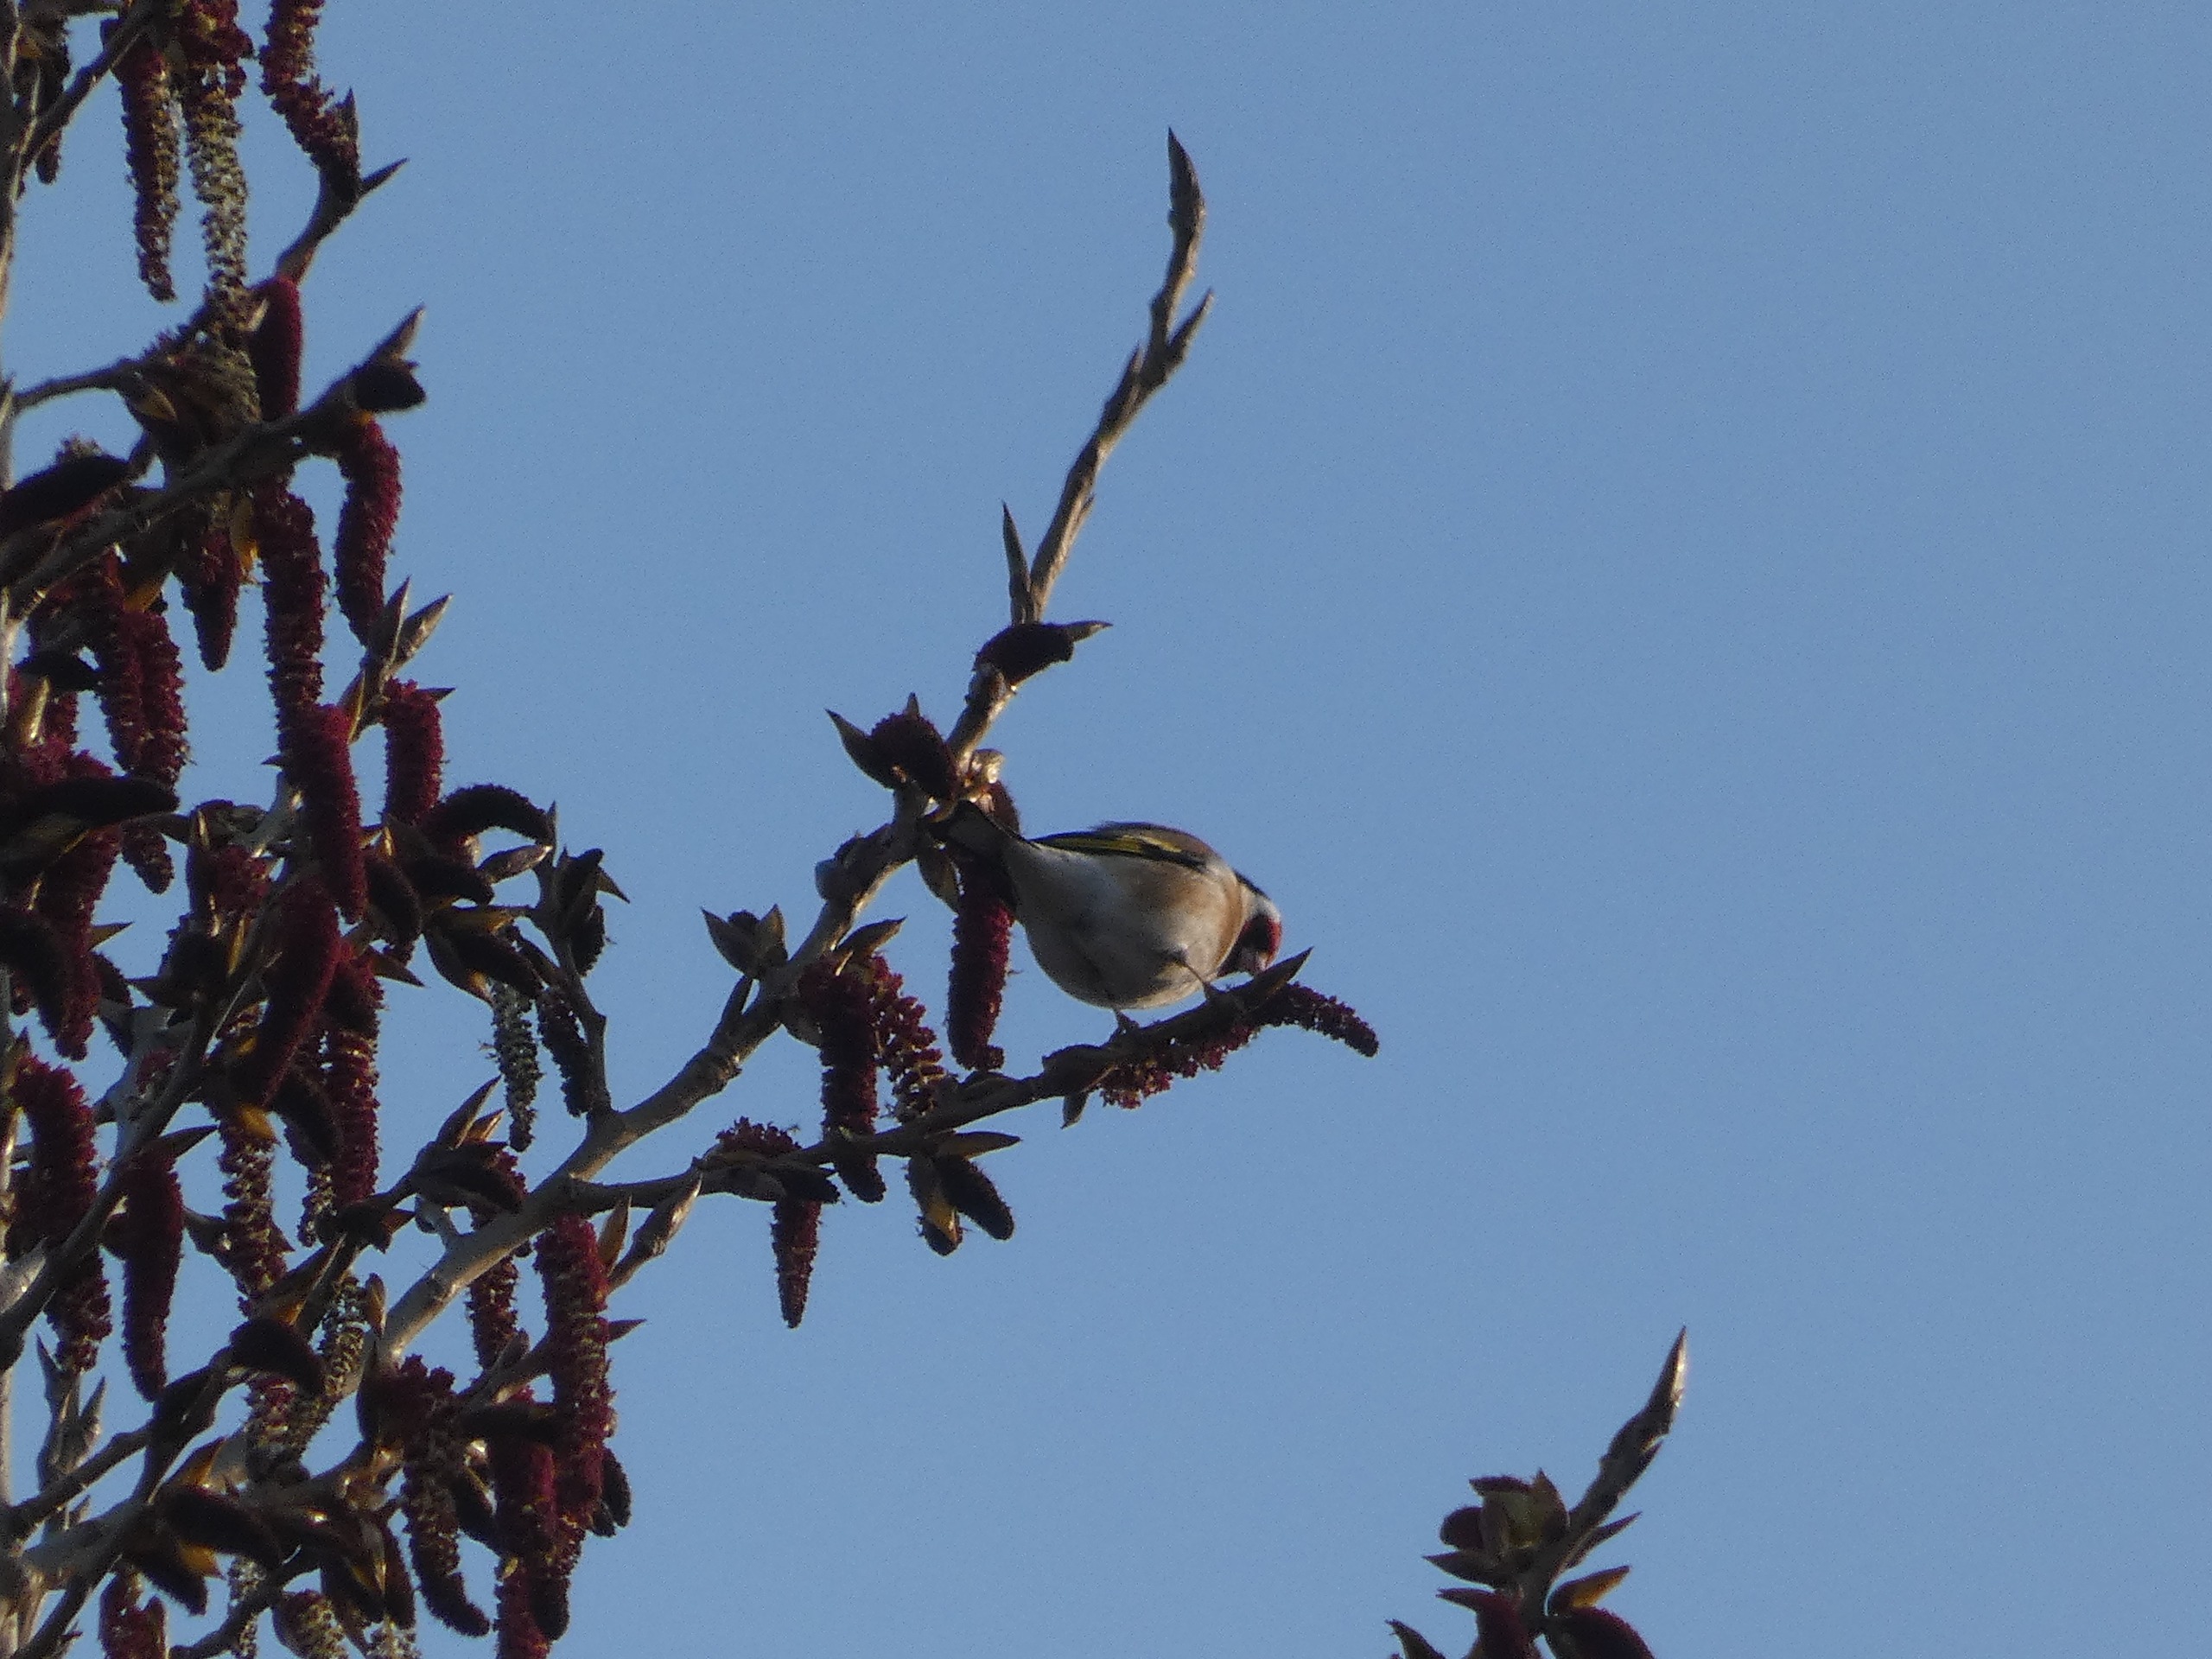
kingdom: Animalia
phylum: Chordata
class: Aves
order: Passeriformes
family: Fringillidae
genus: Carduelis
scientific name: Carduelis carduelis
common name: Stillits
